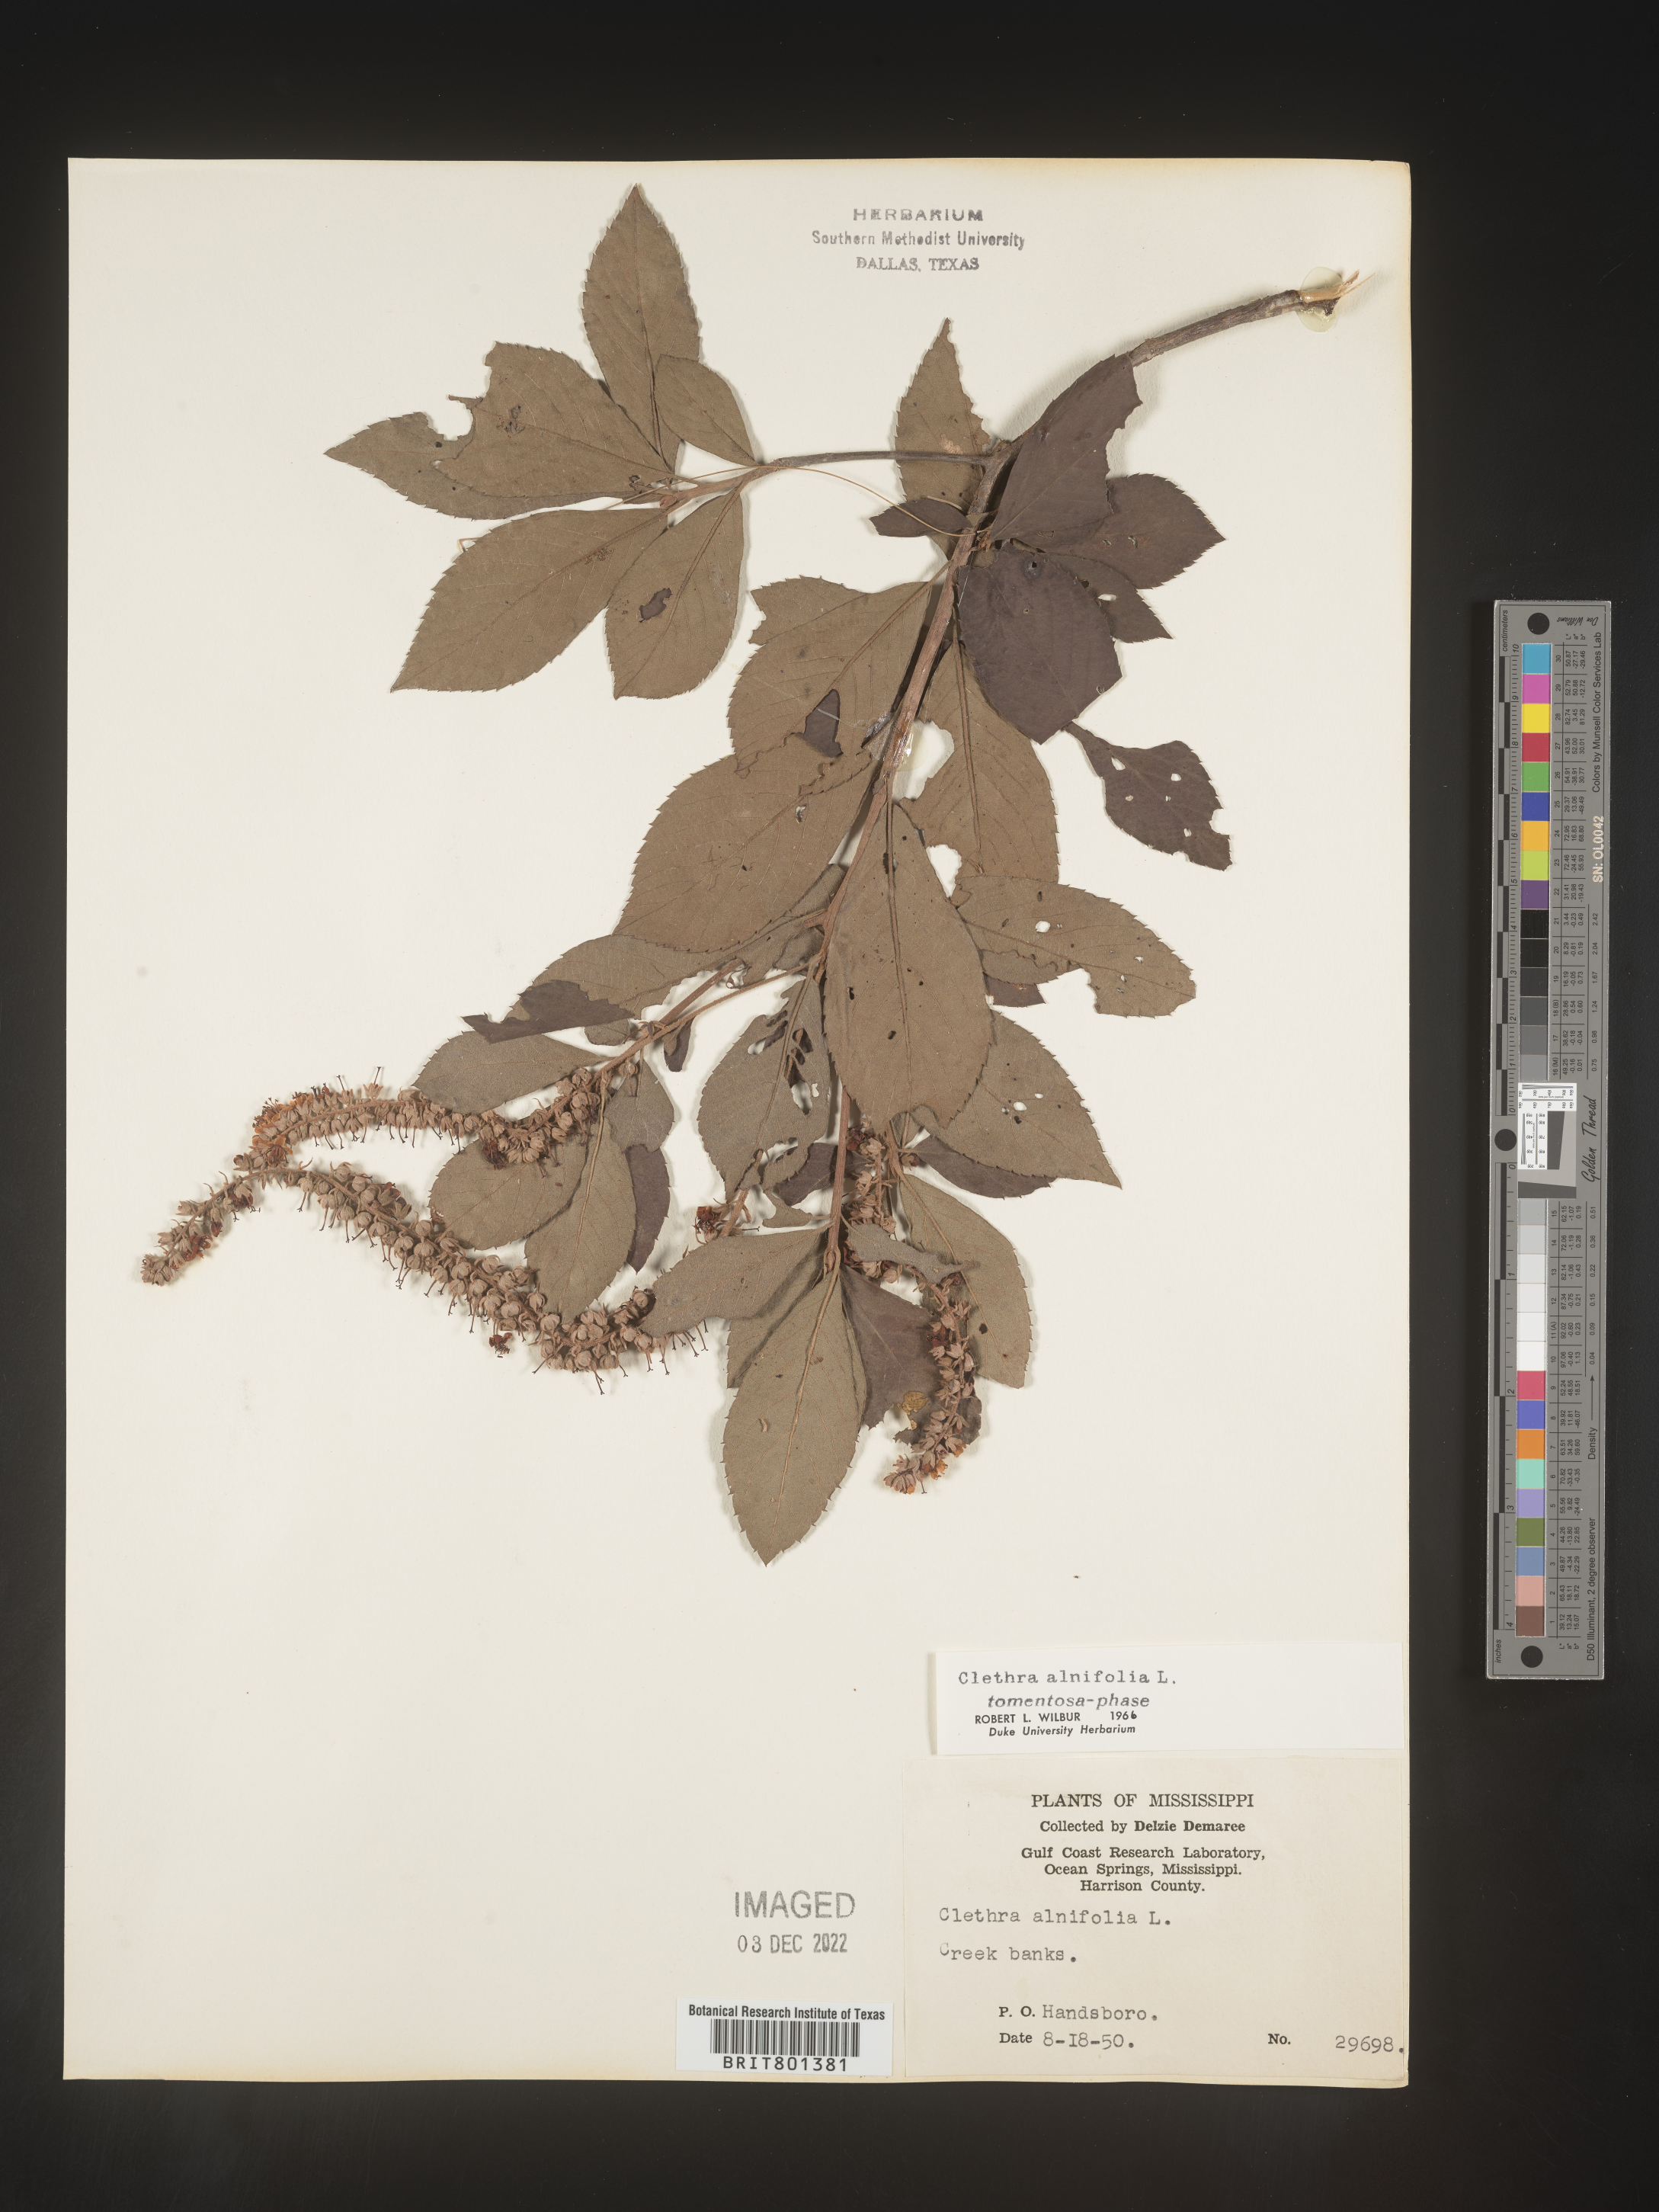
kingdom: Plantae
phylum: Tracheophyta
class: Magnoliopsida
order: Ericales
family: Clethraceae
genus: Clethra
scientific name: Clethra alnifolia
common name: Sweet pepperbush
